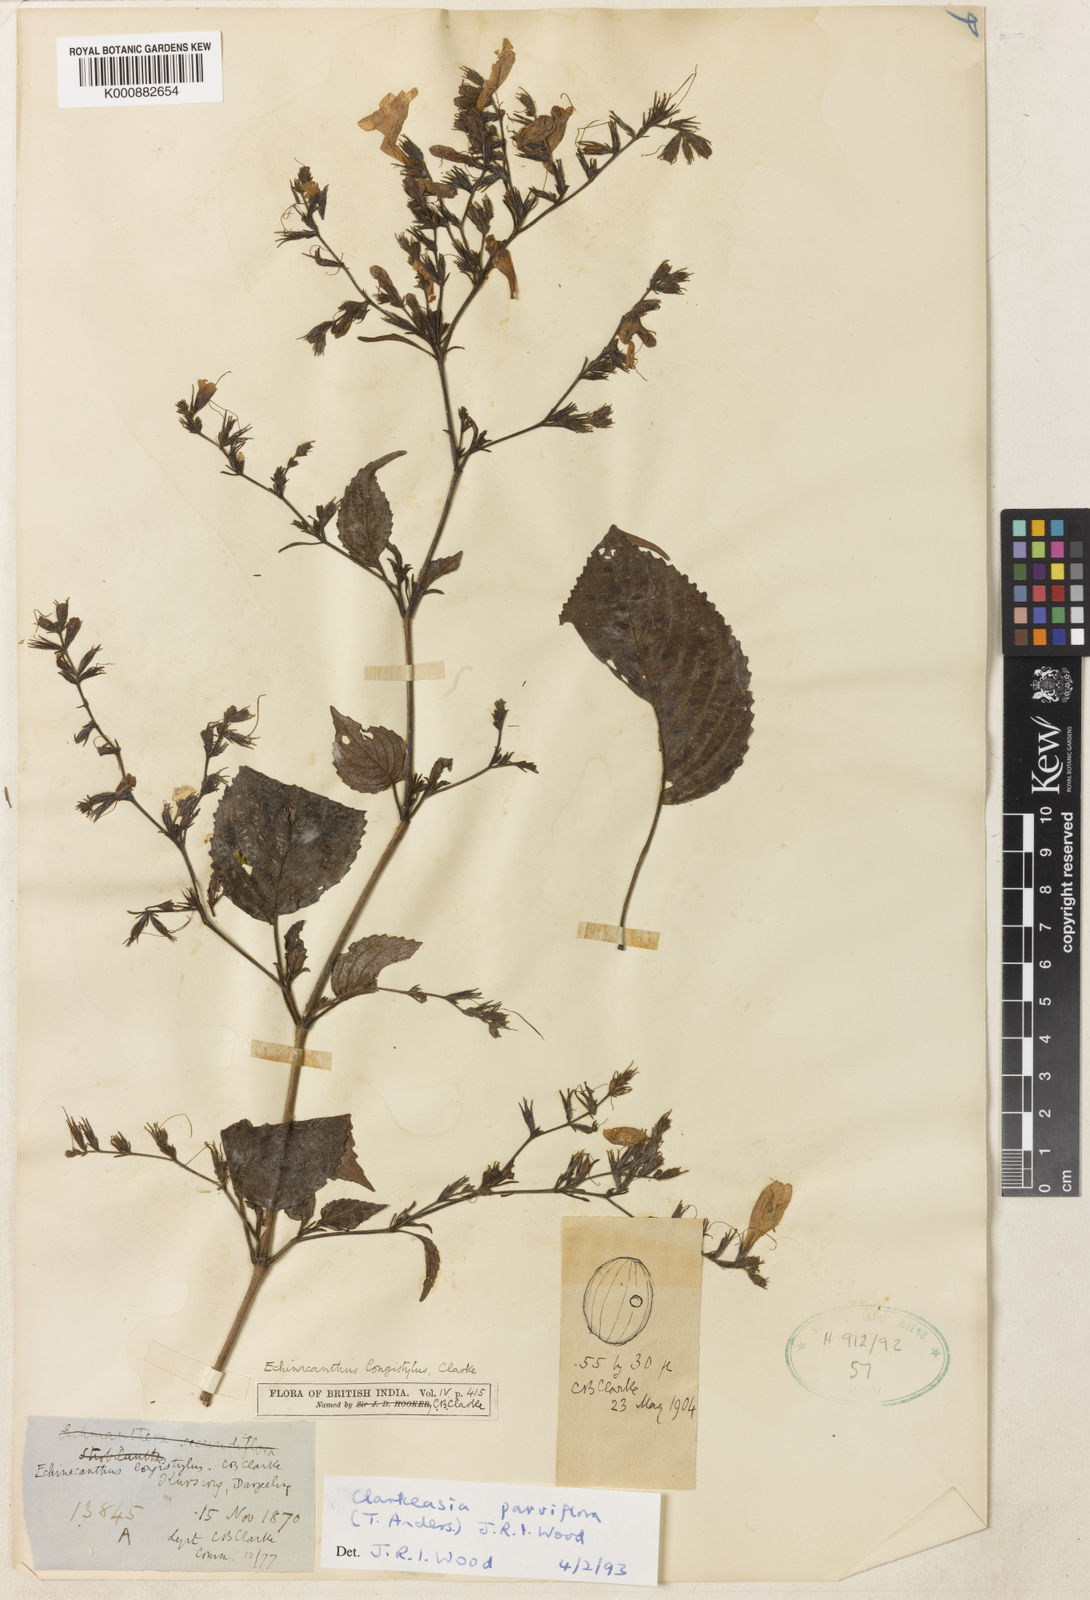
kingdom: Plantae
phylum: Tracheophyta
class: Magnoliopsida
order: Lamiales
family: Acanthaceae
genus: Strobilanthes
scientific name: Strobilanthes violifolia
